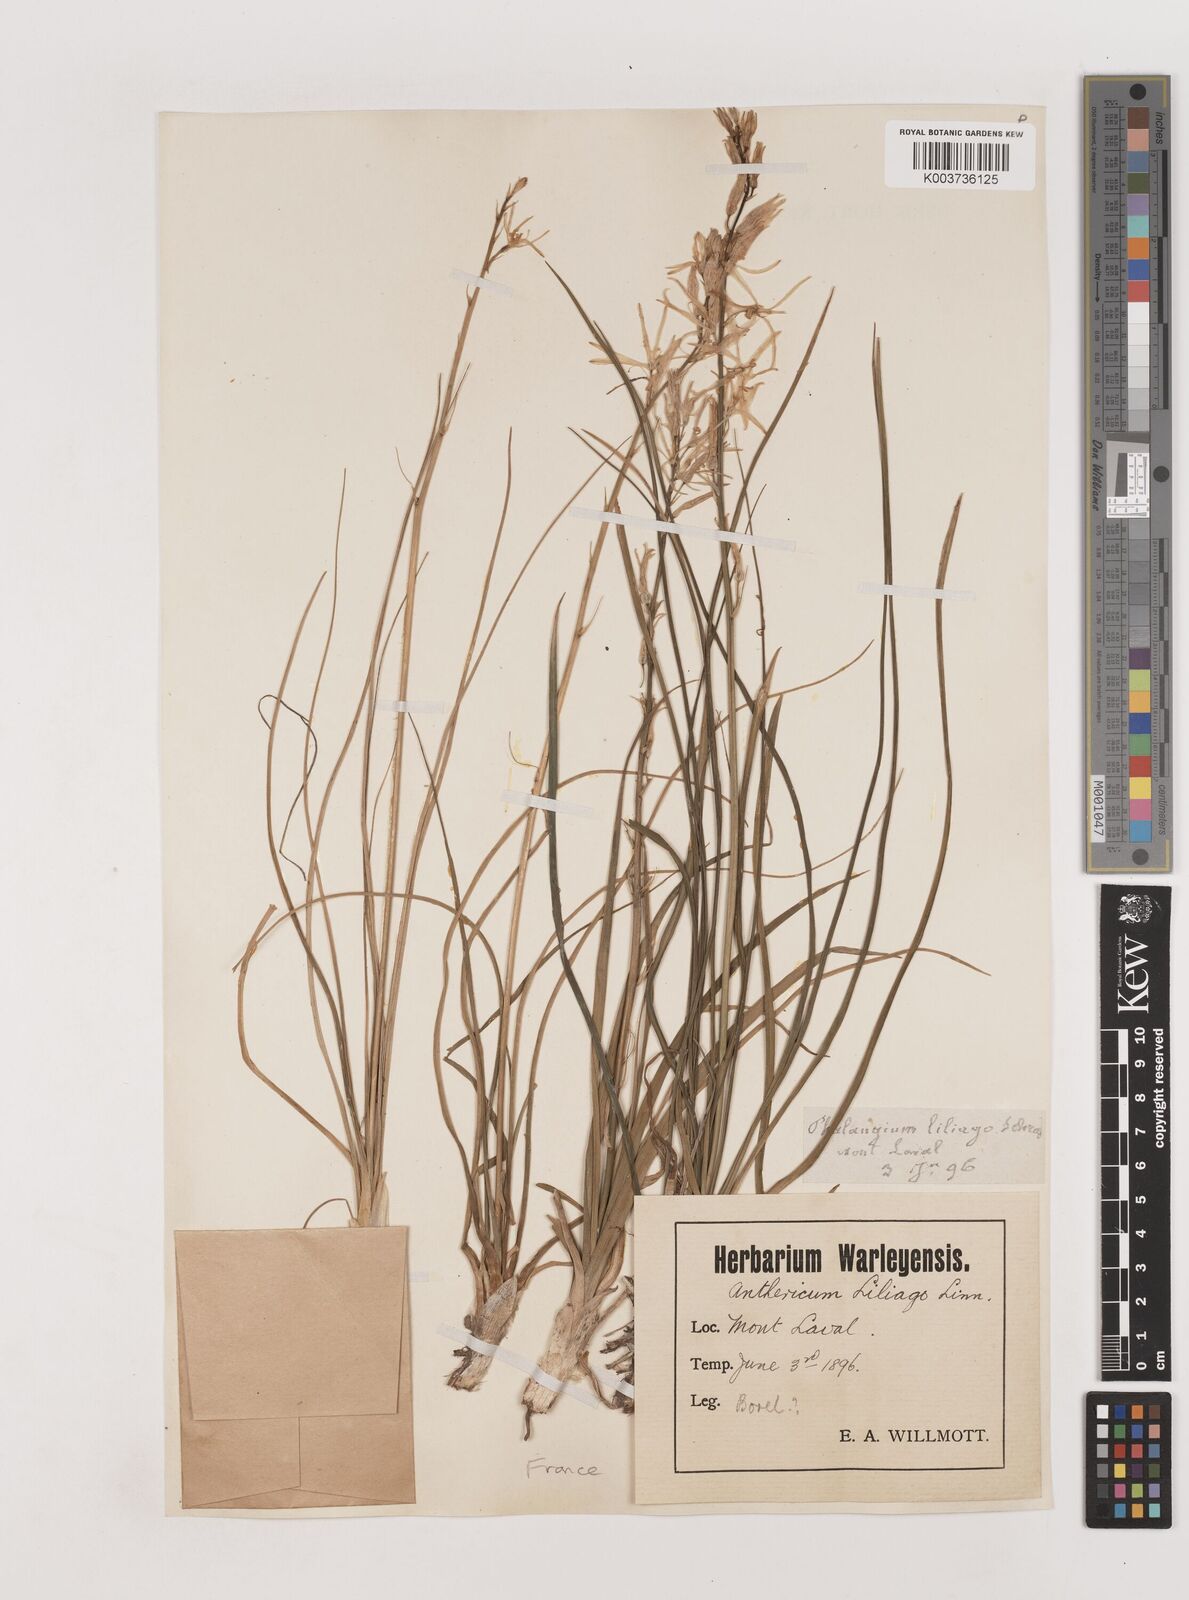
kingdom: Plantae
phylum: Tracheophyta
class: Liliopsida
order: Asparagales
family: Asparagaceae
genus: Anthericum
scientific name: Anthericum liliago
